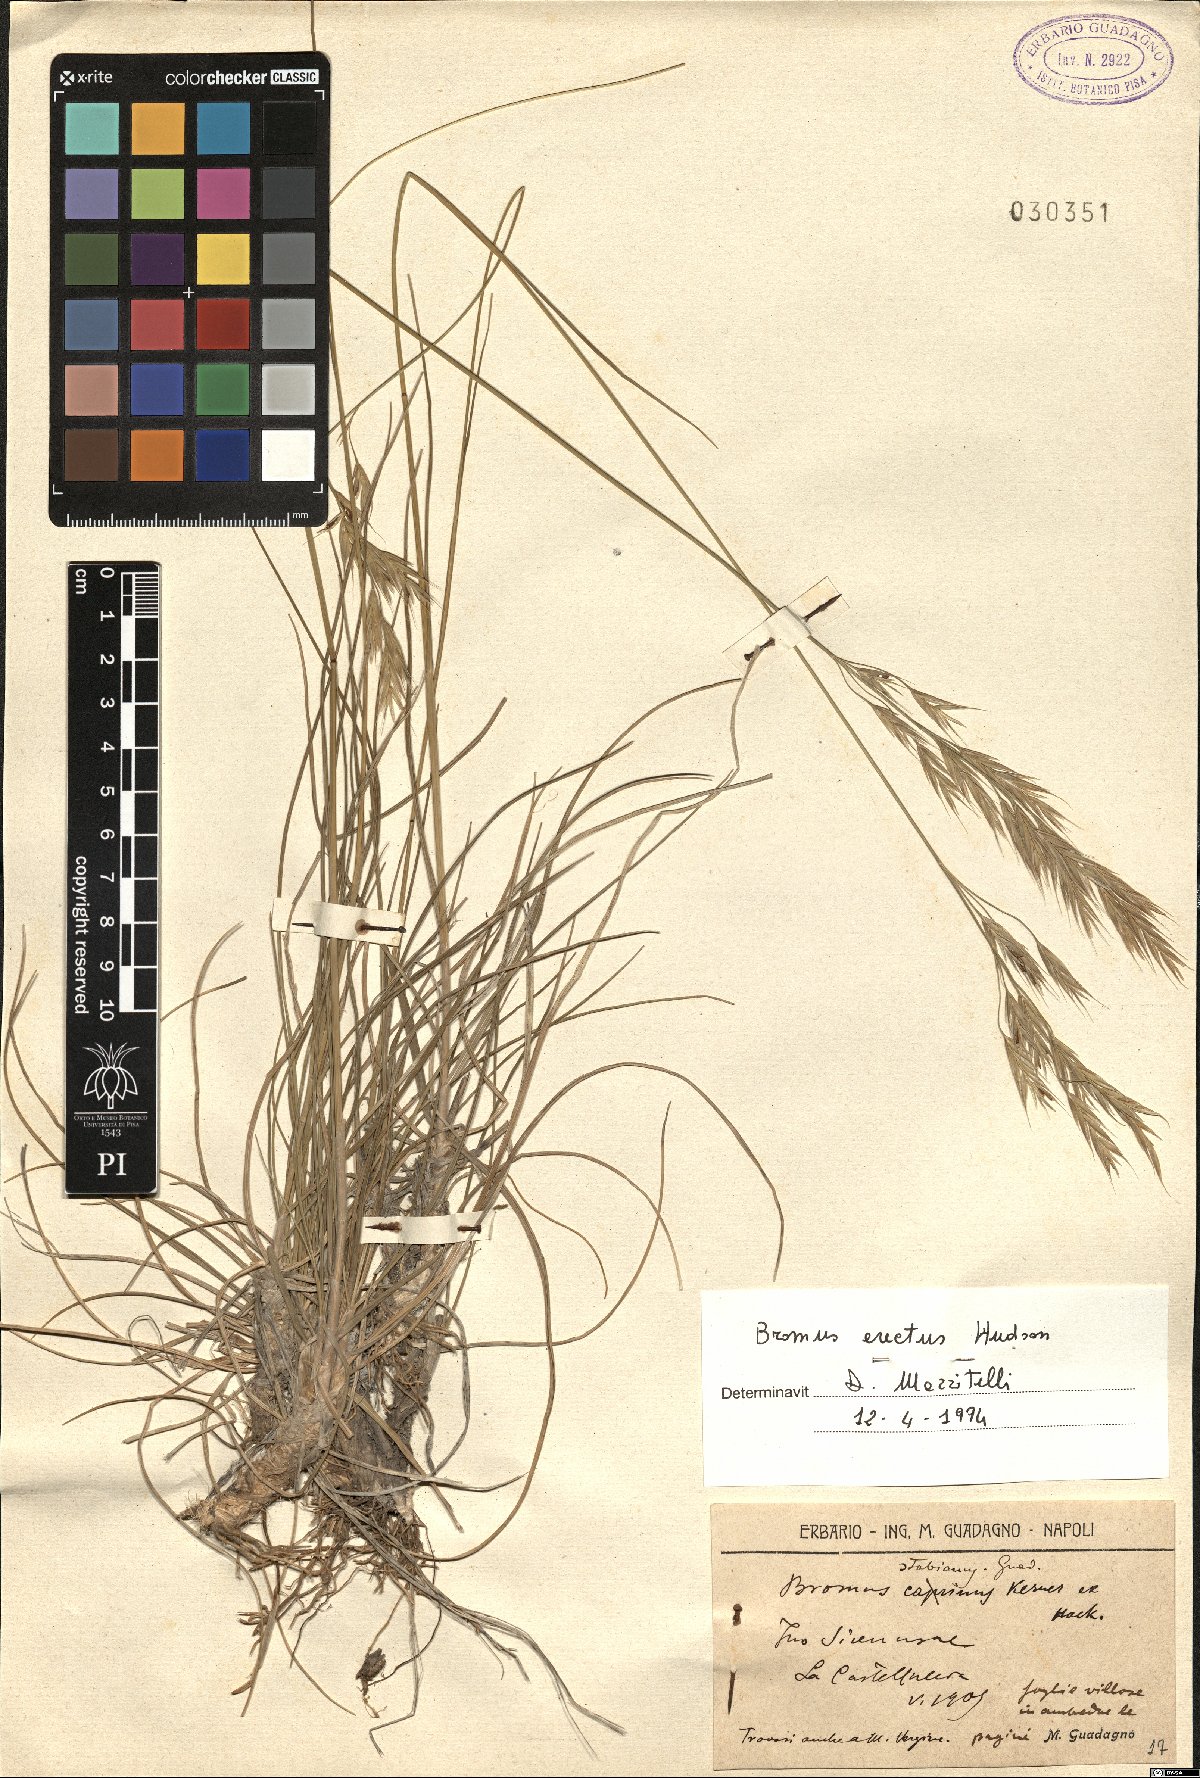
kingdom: Plantae
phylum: Tracheophyta
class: Liliopsida
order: Poales
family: Poaceae
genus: Bromus
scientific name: Bromus erectus
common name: Erect brome
